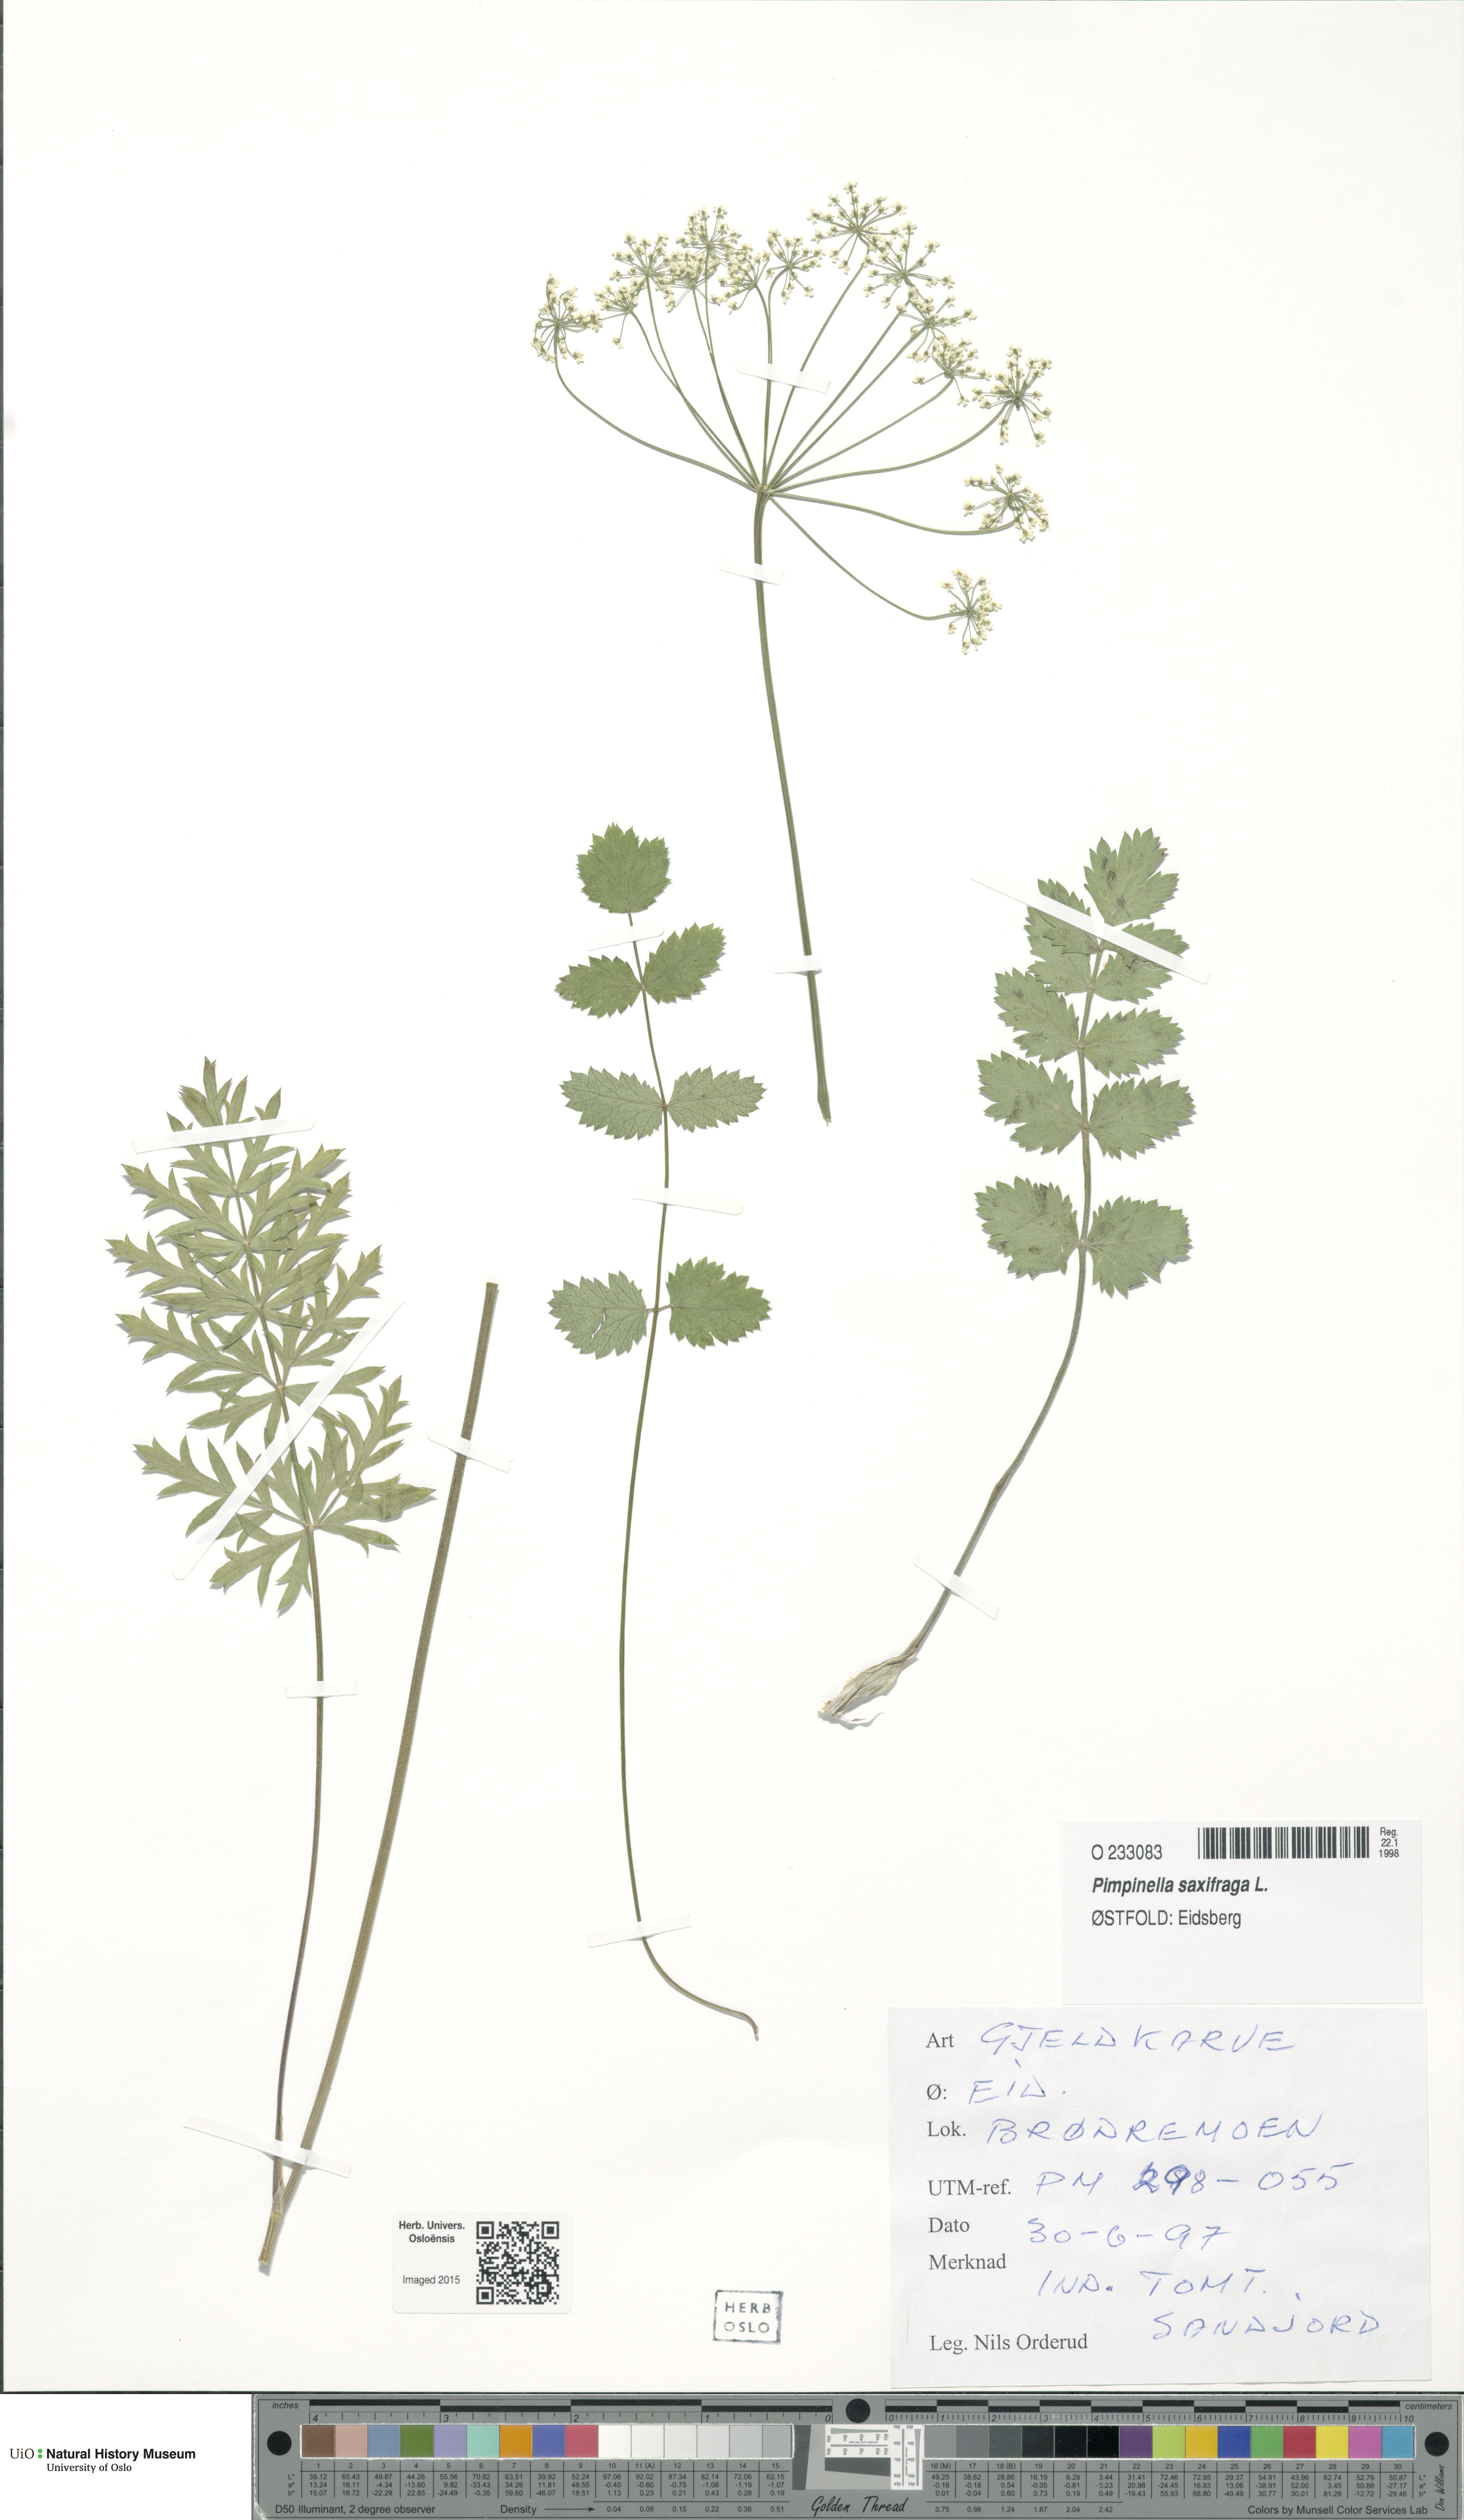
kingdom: Plantae
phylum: Tracheophyta
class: Magnoliopsida
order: Apiales
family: Apiaceae
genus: Pimpinella
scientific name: Pimpinella saxifraga
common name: Burnet-saxifrage
